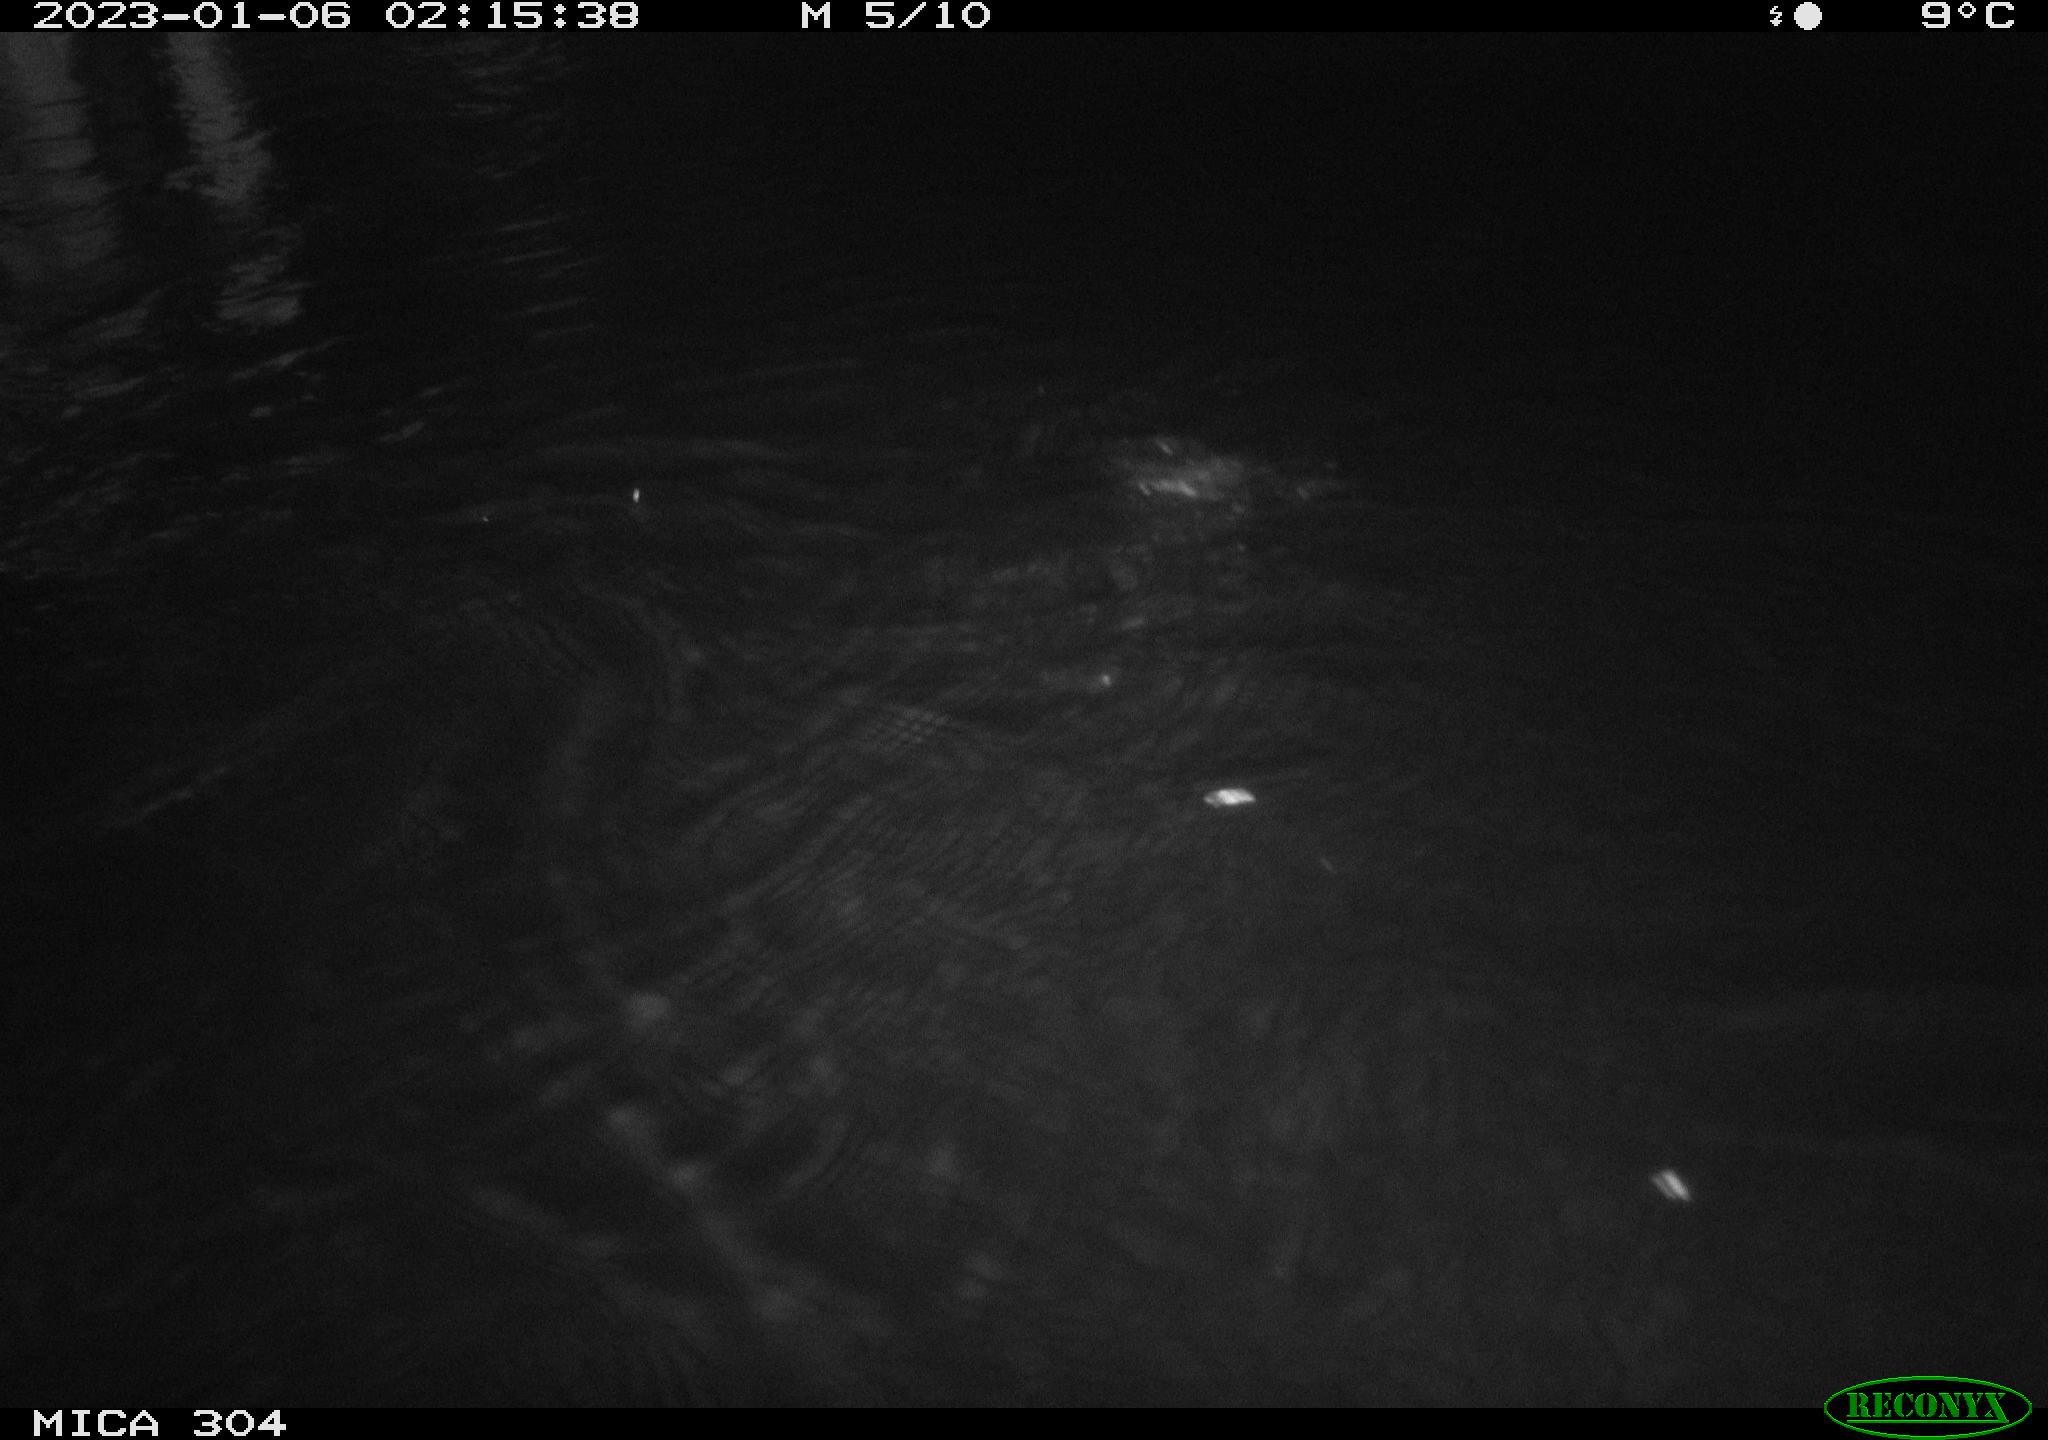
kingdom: Animalia
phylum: Chordata
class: Aves
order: Anseriformes
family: Anatidae
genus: Anas
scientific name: Anas
